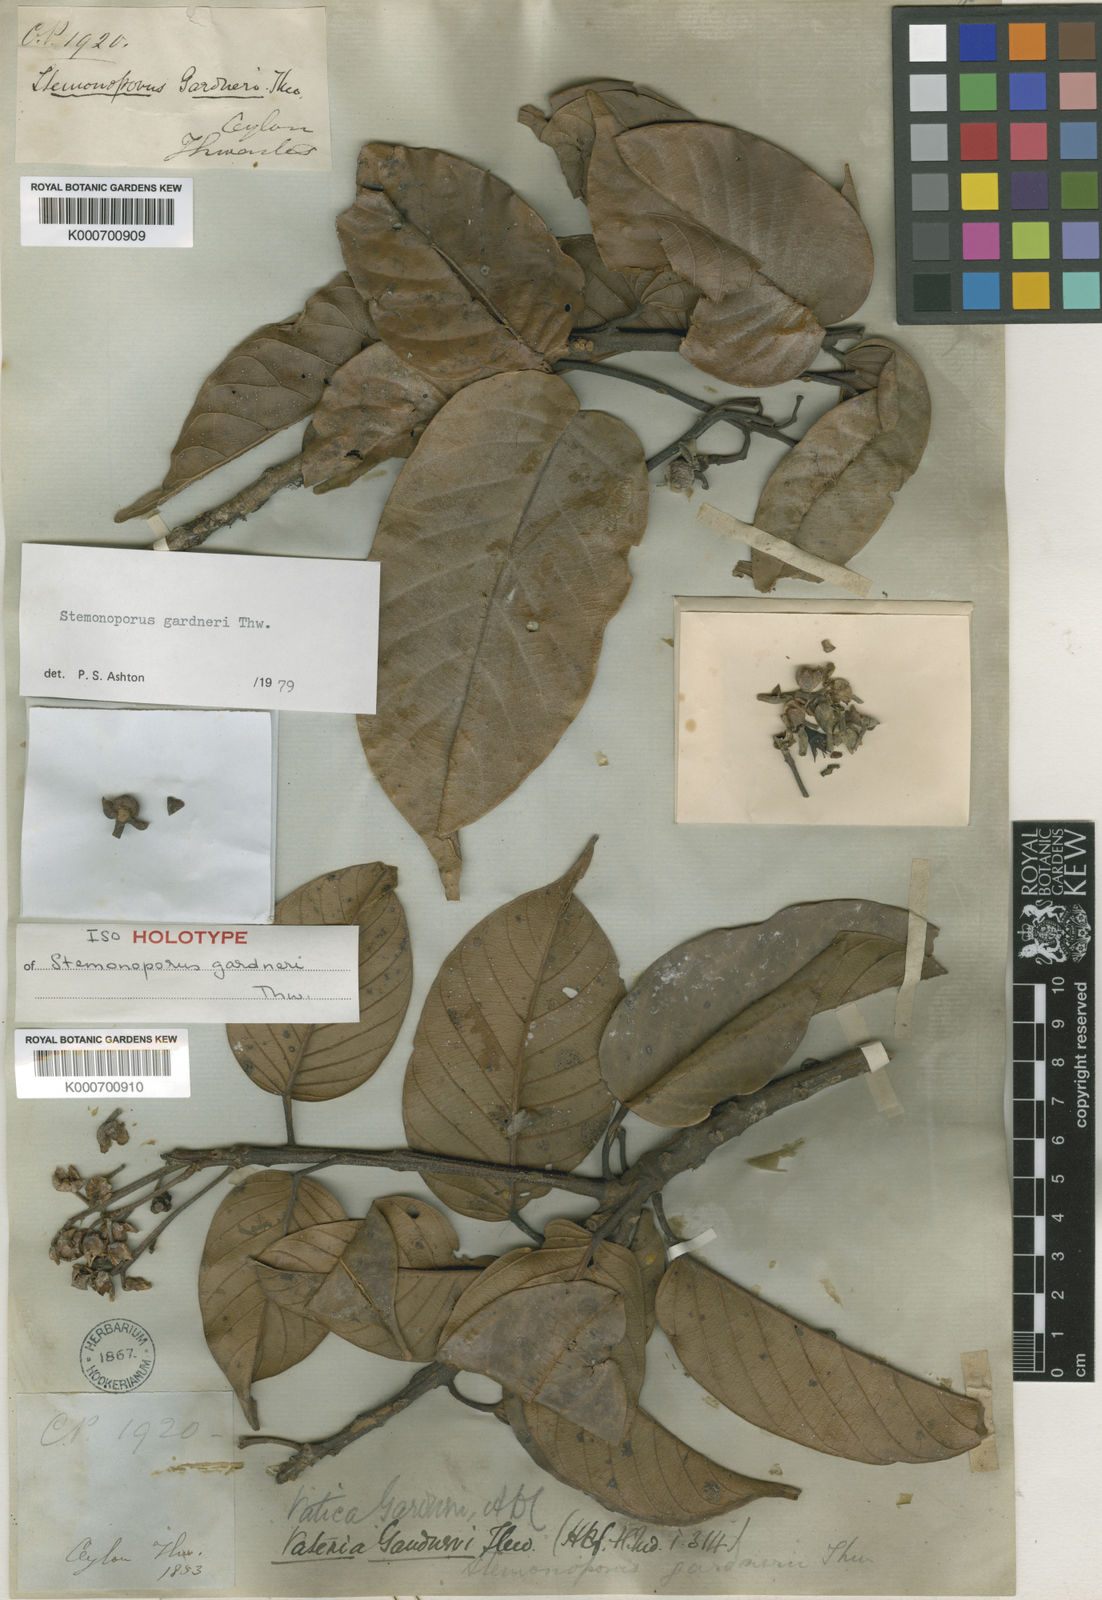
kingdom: Plantae
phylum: Tracheophyta
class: Magnoliopsida
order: Malvales
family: Dipterocarpaceae
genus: Stemonoporus
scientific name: Stemonoporus gardneri
